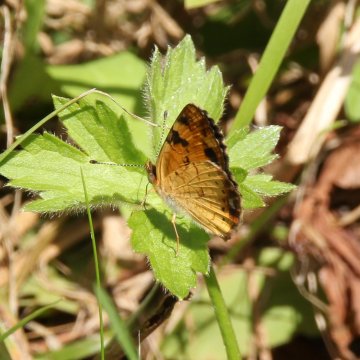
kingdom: Animalia
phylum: Arthropoda
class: Insecta
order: Lepidoptera
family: Nymphalidae
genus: Phyciodes
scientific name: Phyciodes tharos
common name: Northern Crescent
